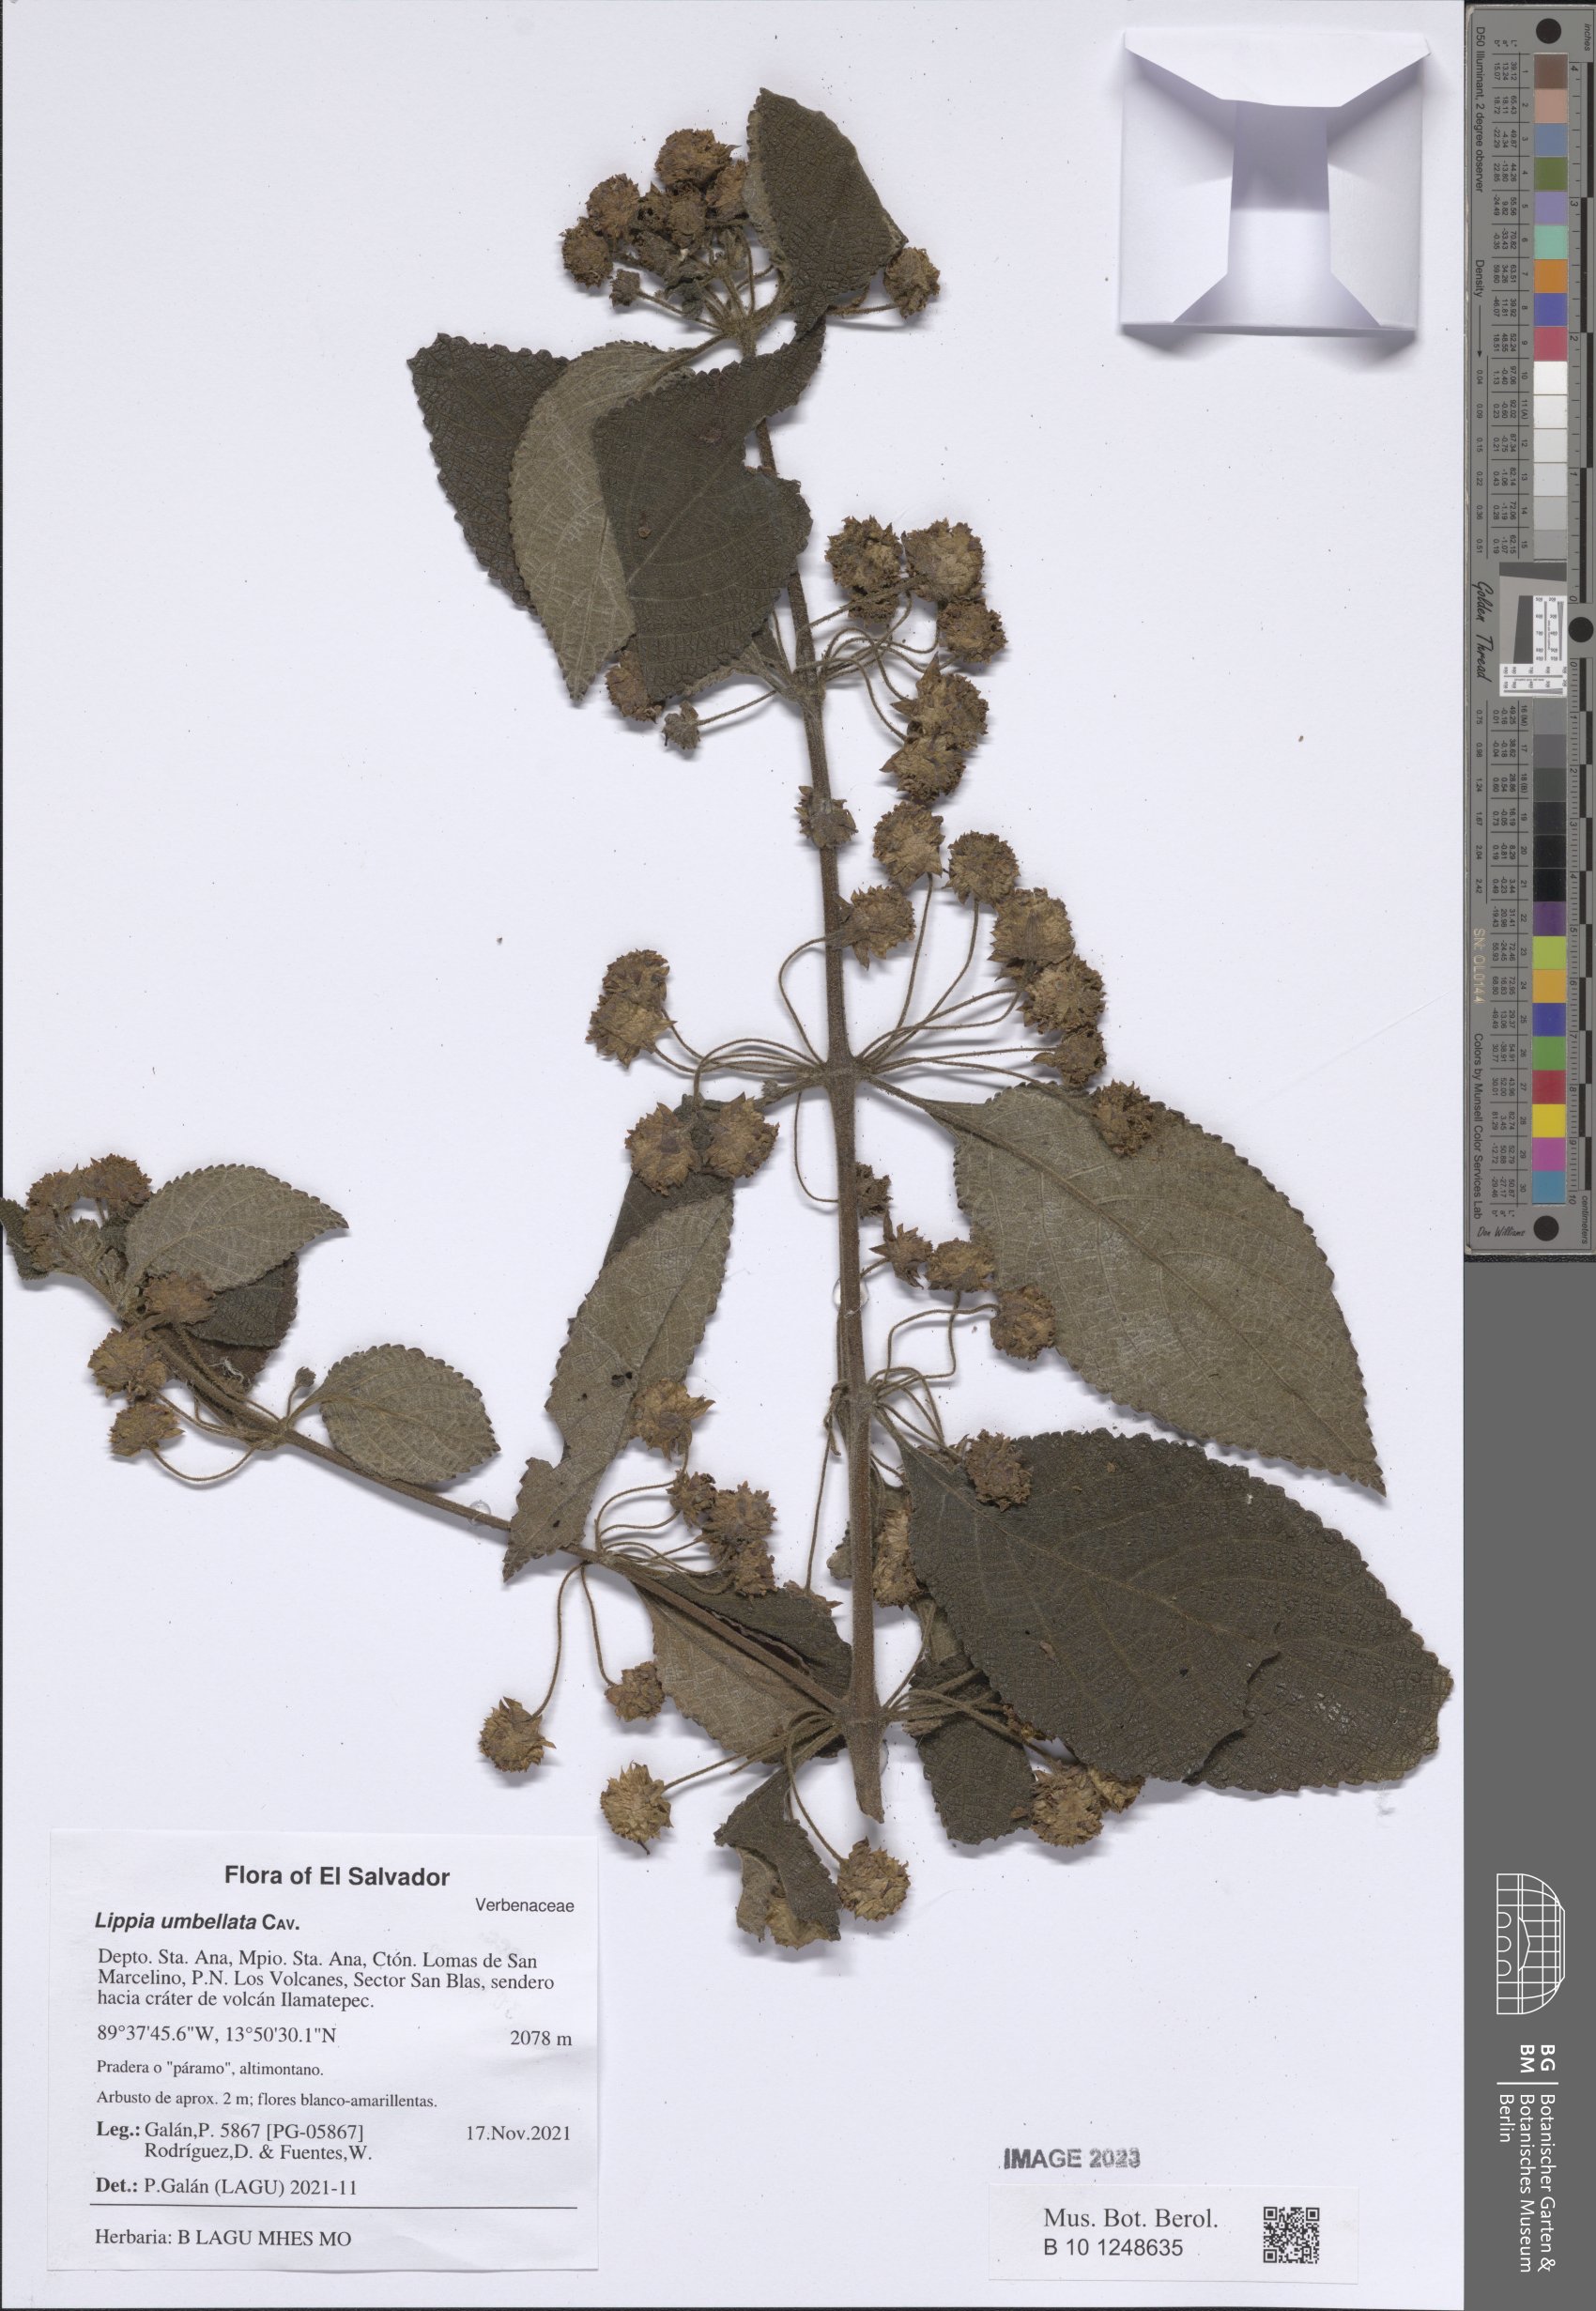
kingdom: Plantae
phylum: Tracheophyta
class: Magnoliopsida
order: Lamiales
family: Verbenaceae
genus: Lippia
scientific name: Lippia umbellata
